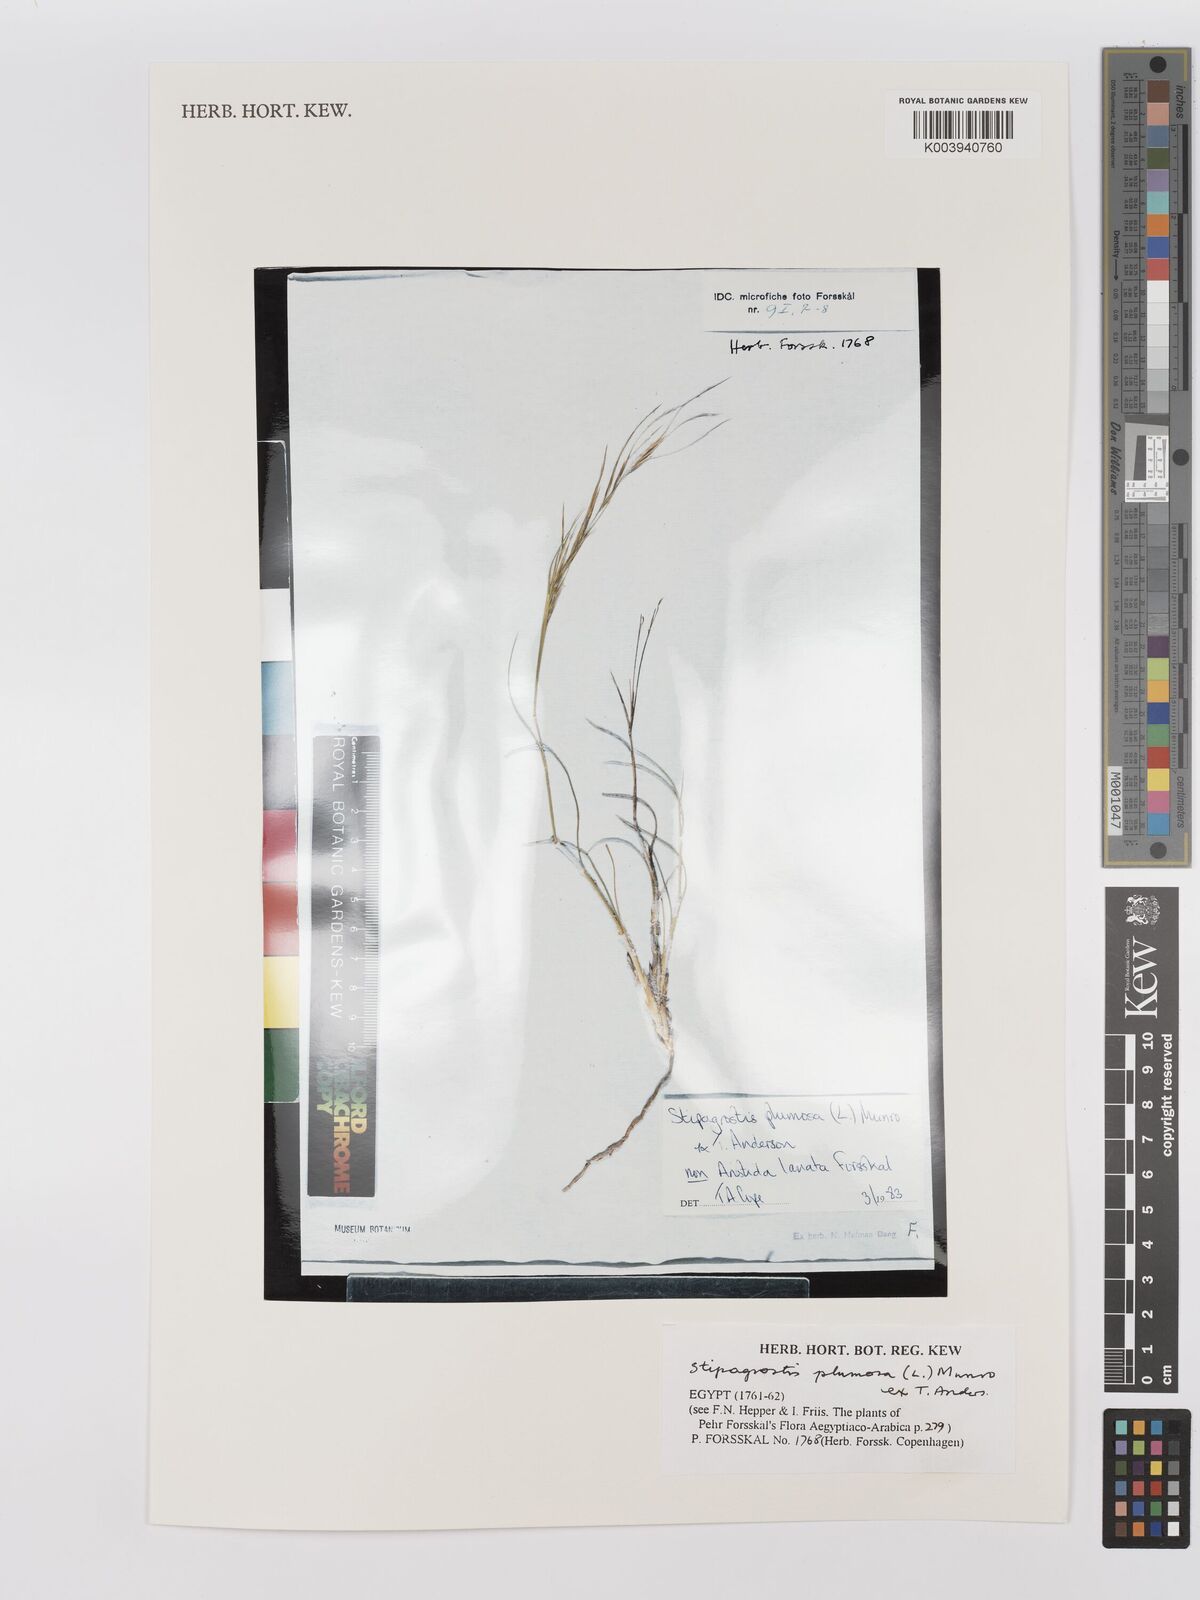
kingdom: Plantae
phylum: Tracheophyta
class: Liliopsida
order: Poales
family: Poaceae
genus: Stipagrostis
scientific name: Stipagrostis plumosa
